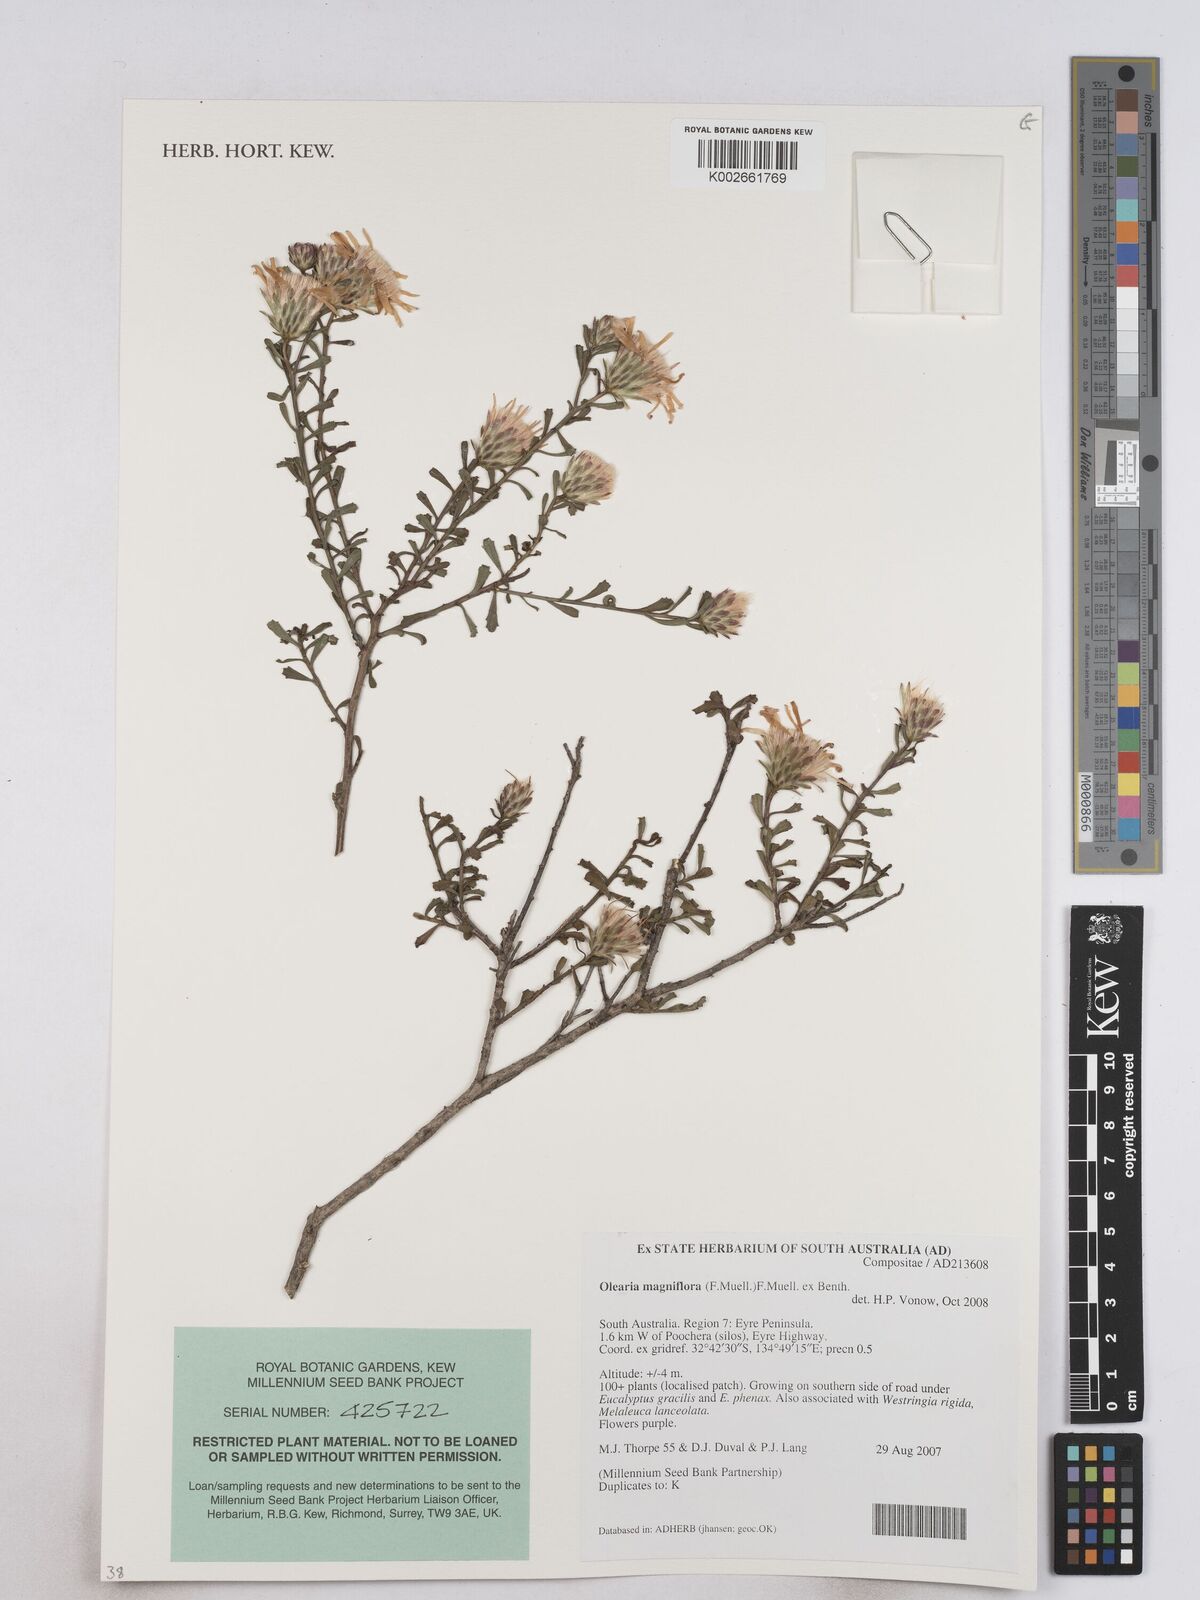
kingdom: Plantae
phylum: Tracheophyta
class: Magnoliopsida
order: Asterales
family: Asteraceae
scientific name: Asteraceae
